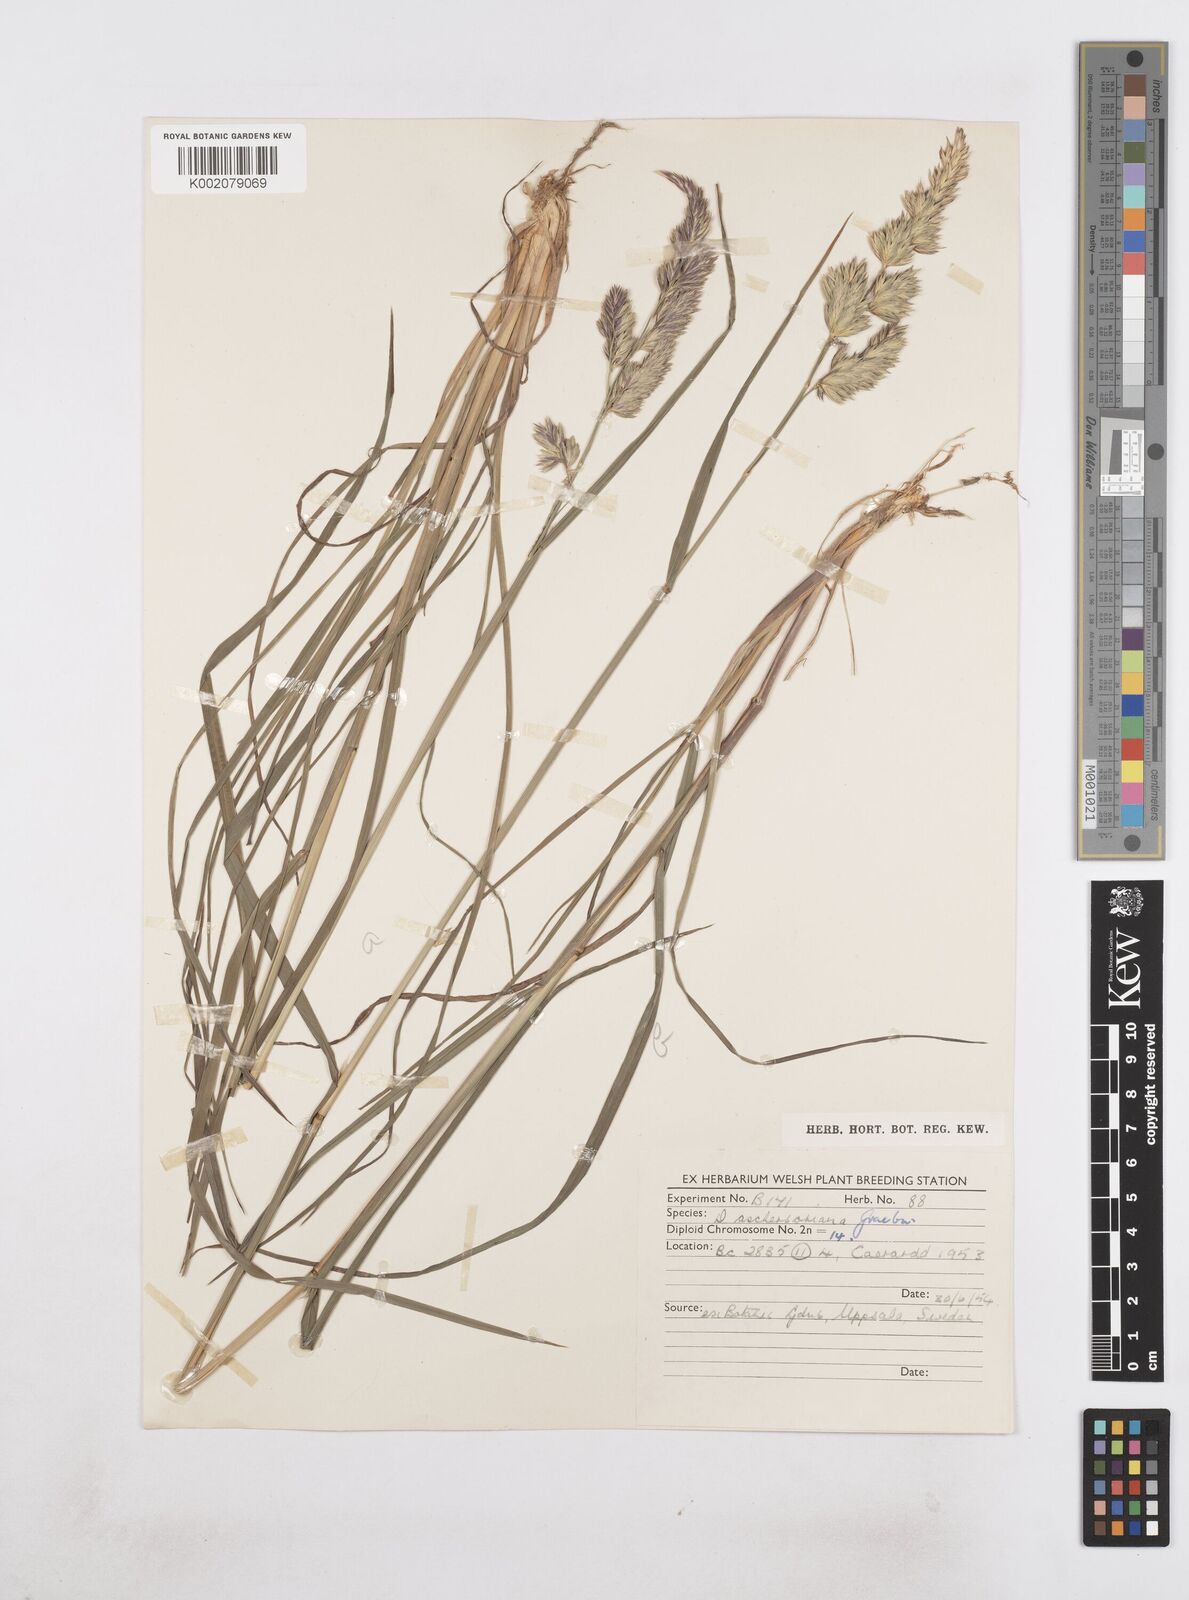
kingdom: Plantae
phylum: Tracheophyta
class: Liliopsida
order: Poales
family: Poaceae
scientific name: Poaceae
